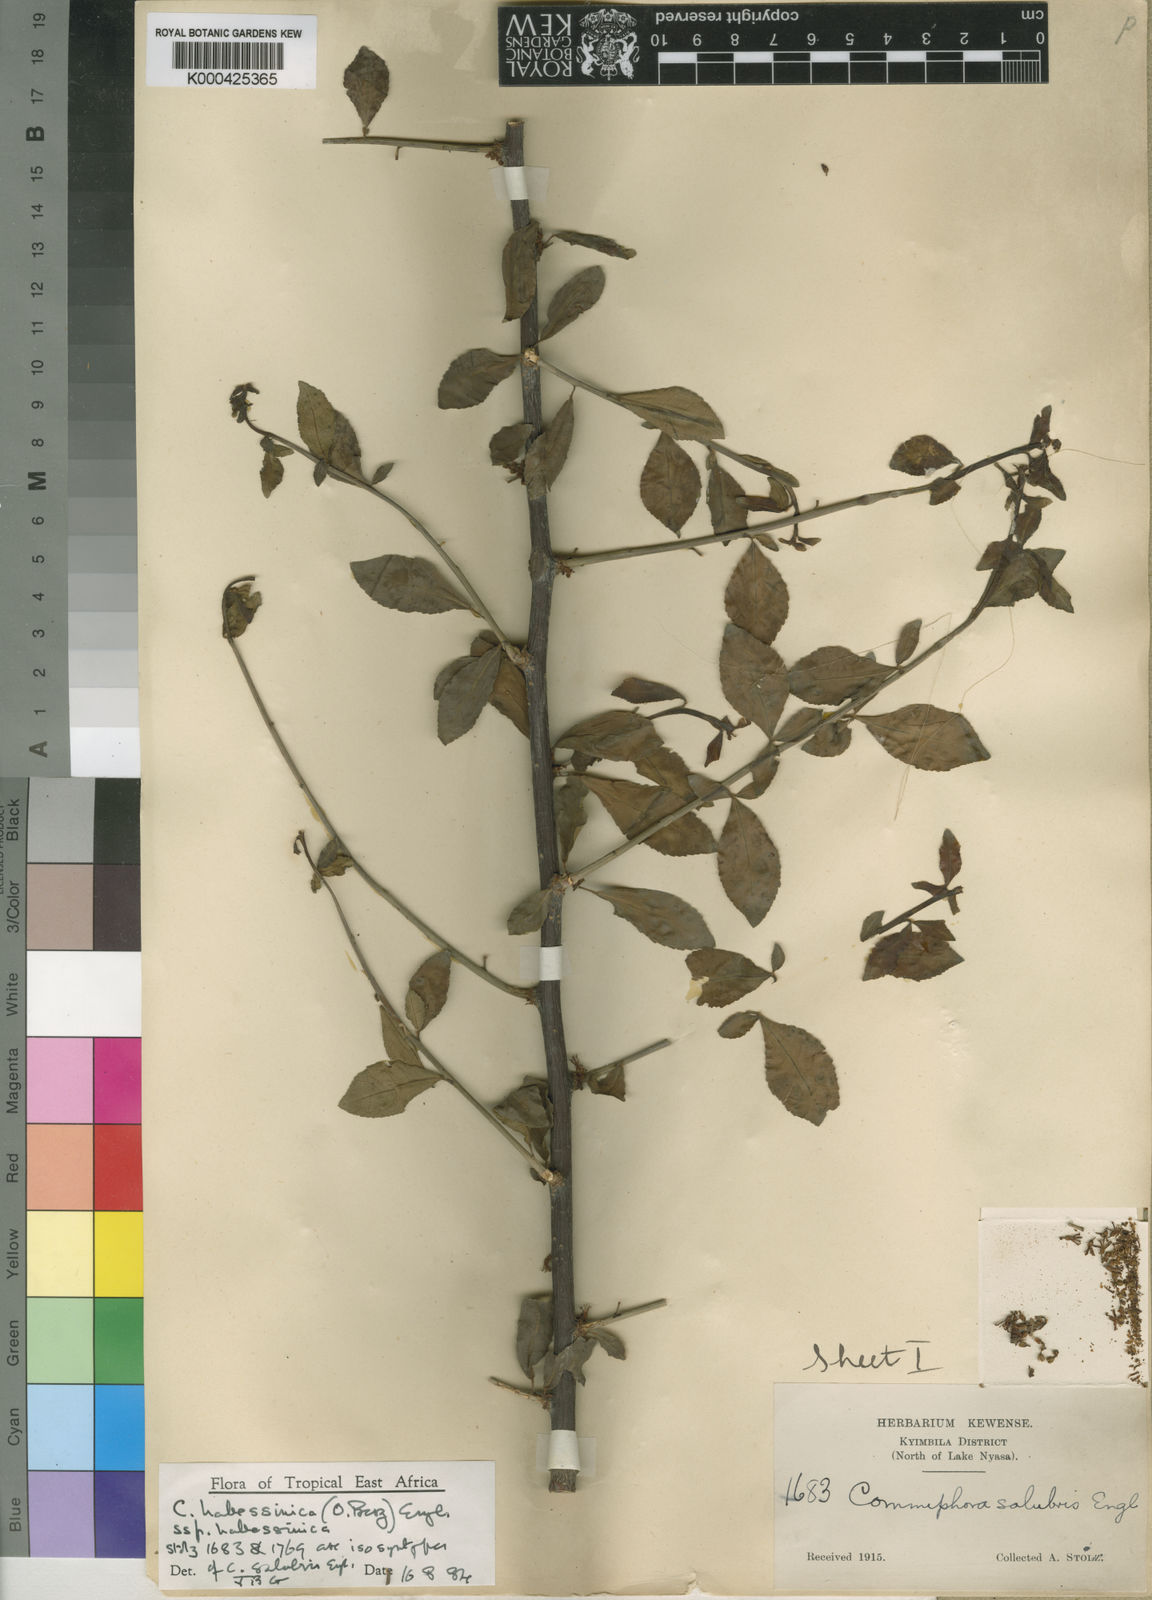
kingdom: Plantae
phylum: Tracheophyta
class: Magnoliopsida
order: Sapindales
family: Burseraceae
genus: Commiphora
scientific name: Commiphora kua
